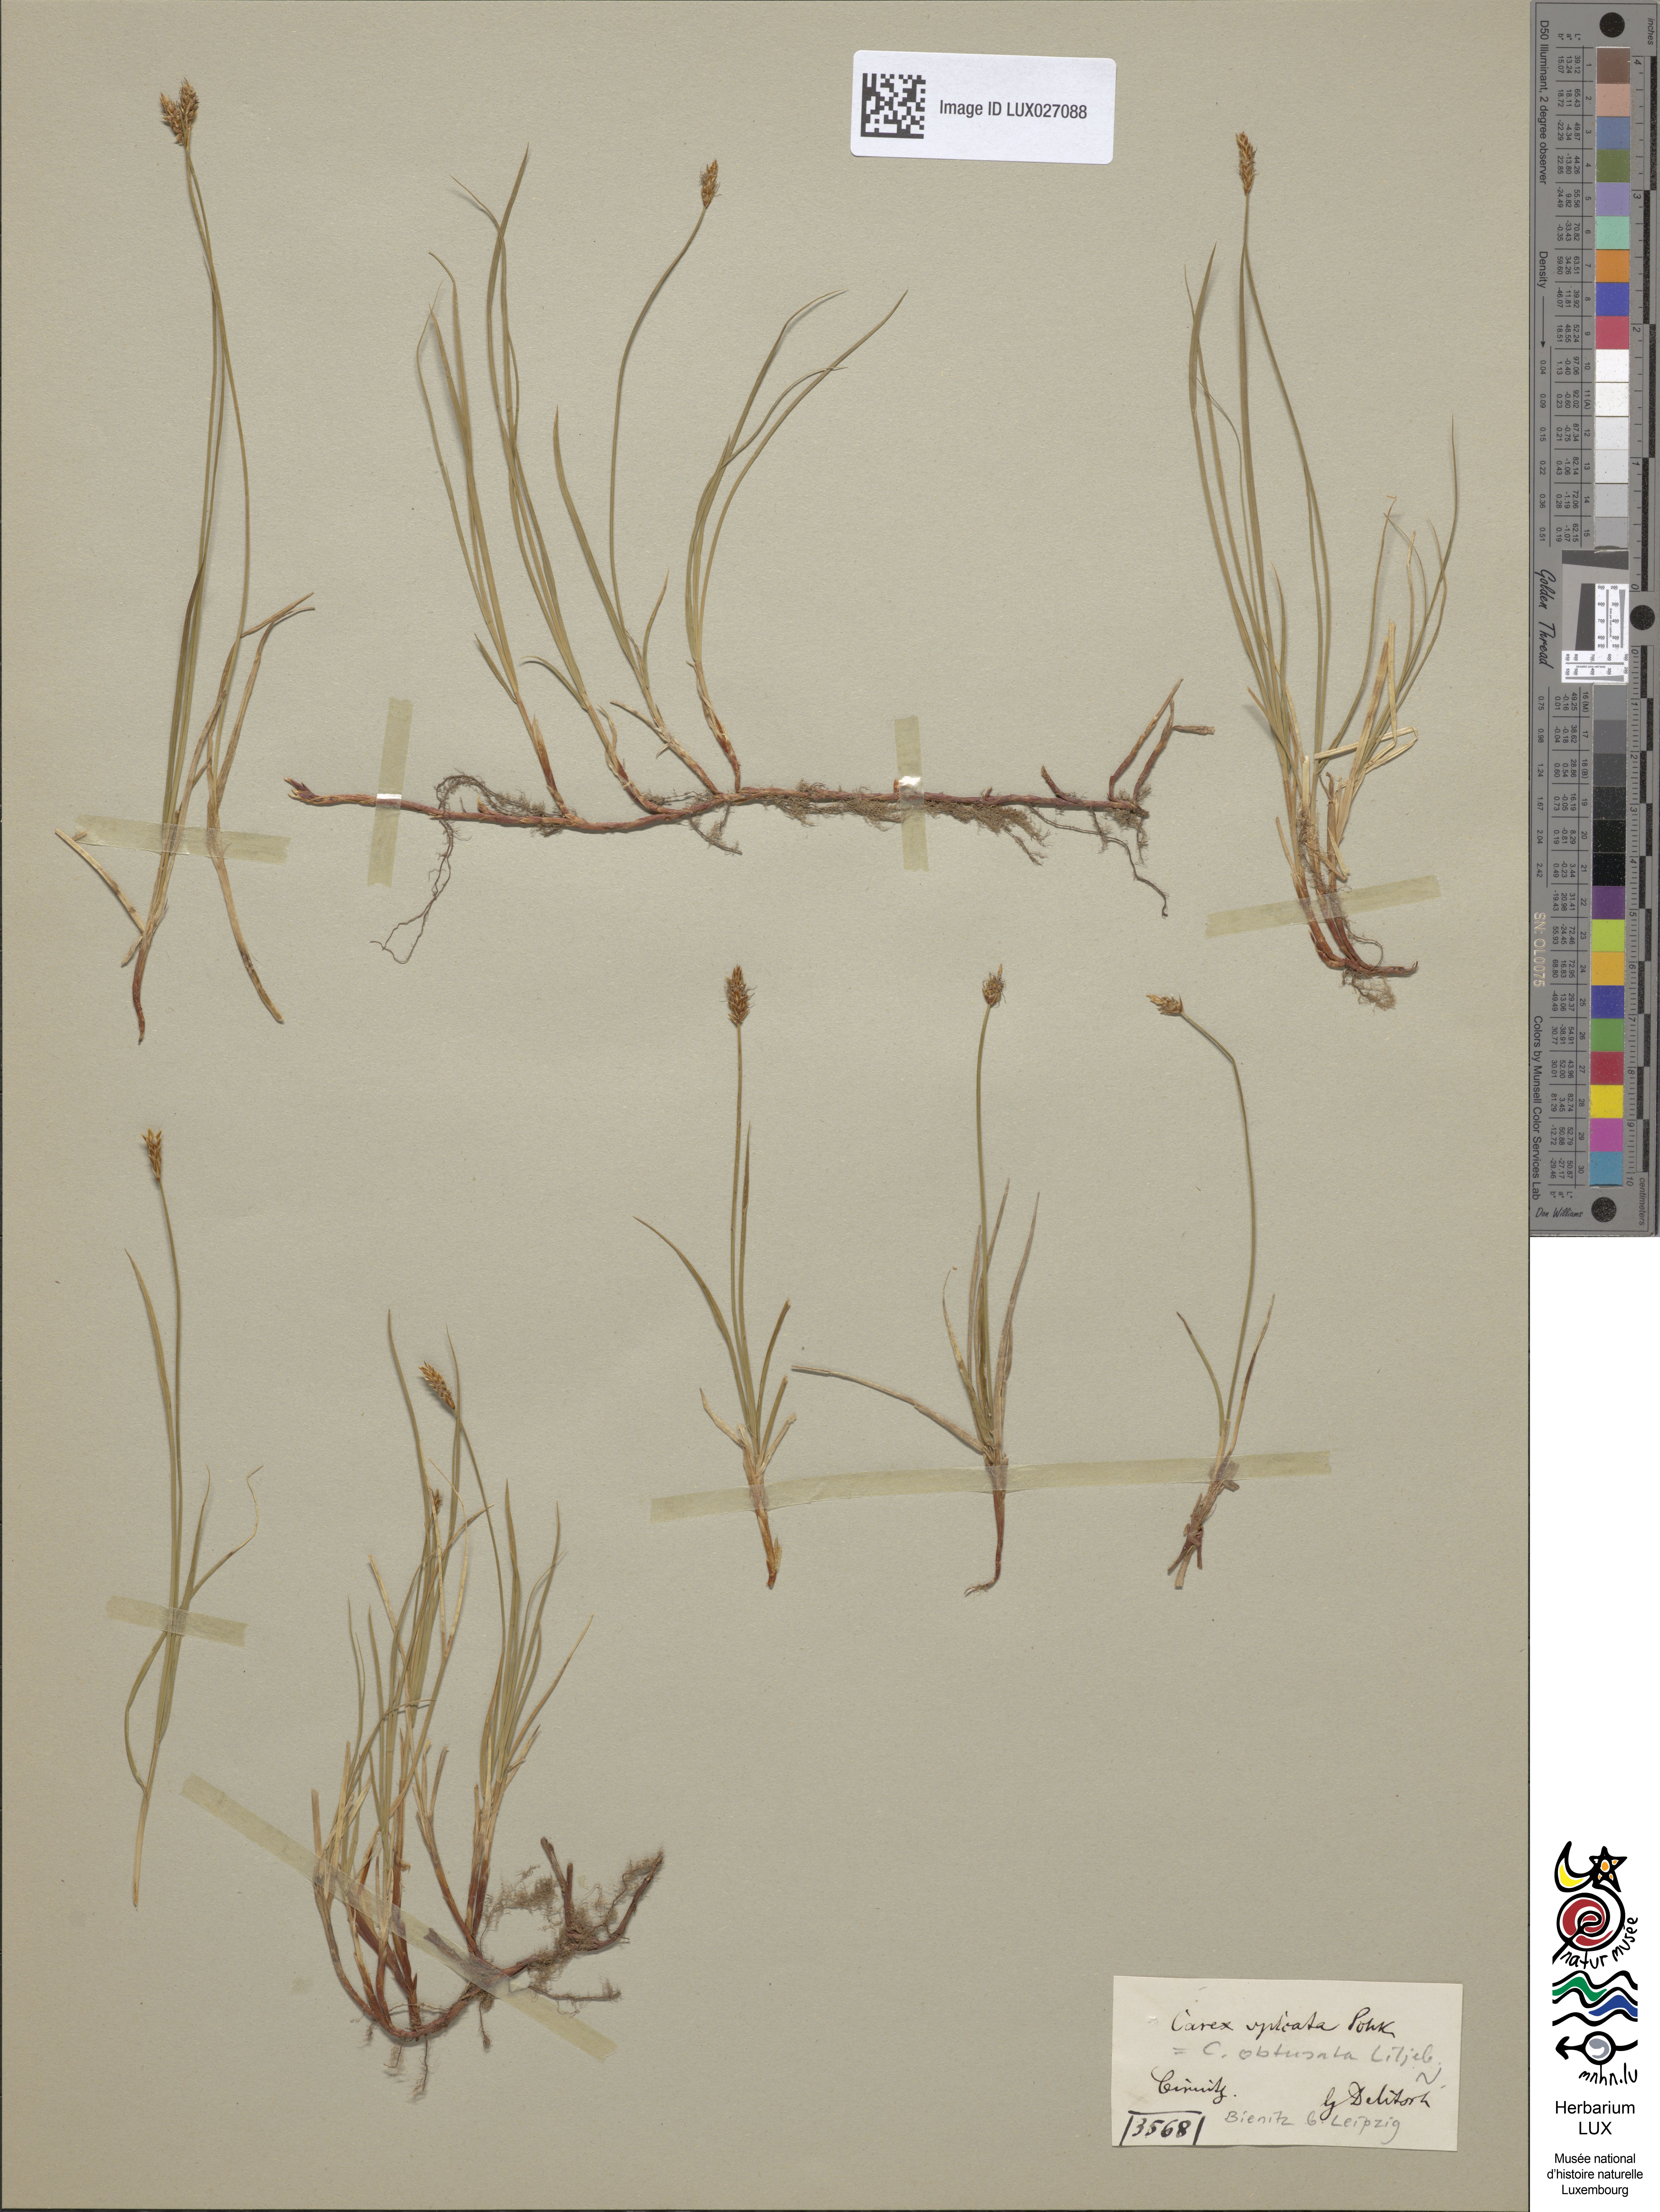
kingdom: Plantae
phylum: Tracheophyta
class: Liliopsida
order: Poales
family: Cyperaceae
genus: Carex
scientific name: Carex obtusata
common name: Blunt sedge
